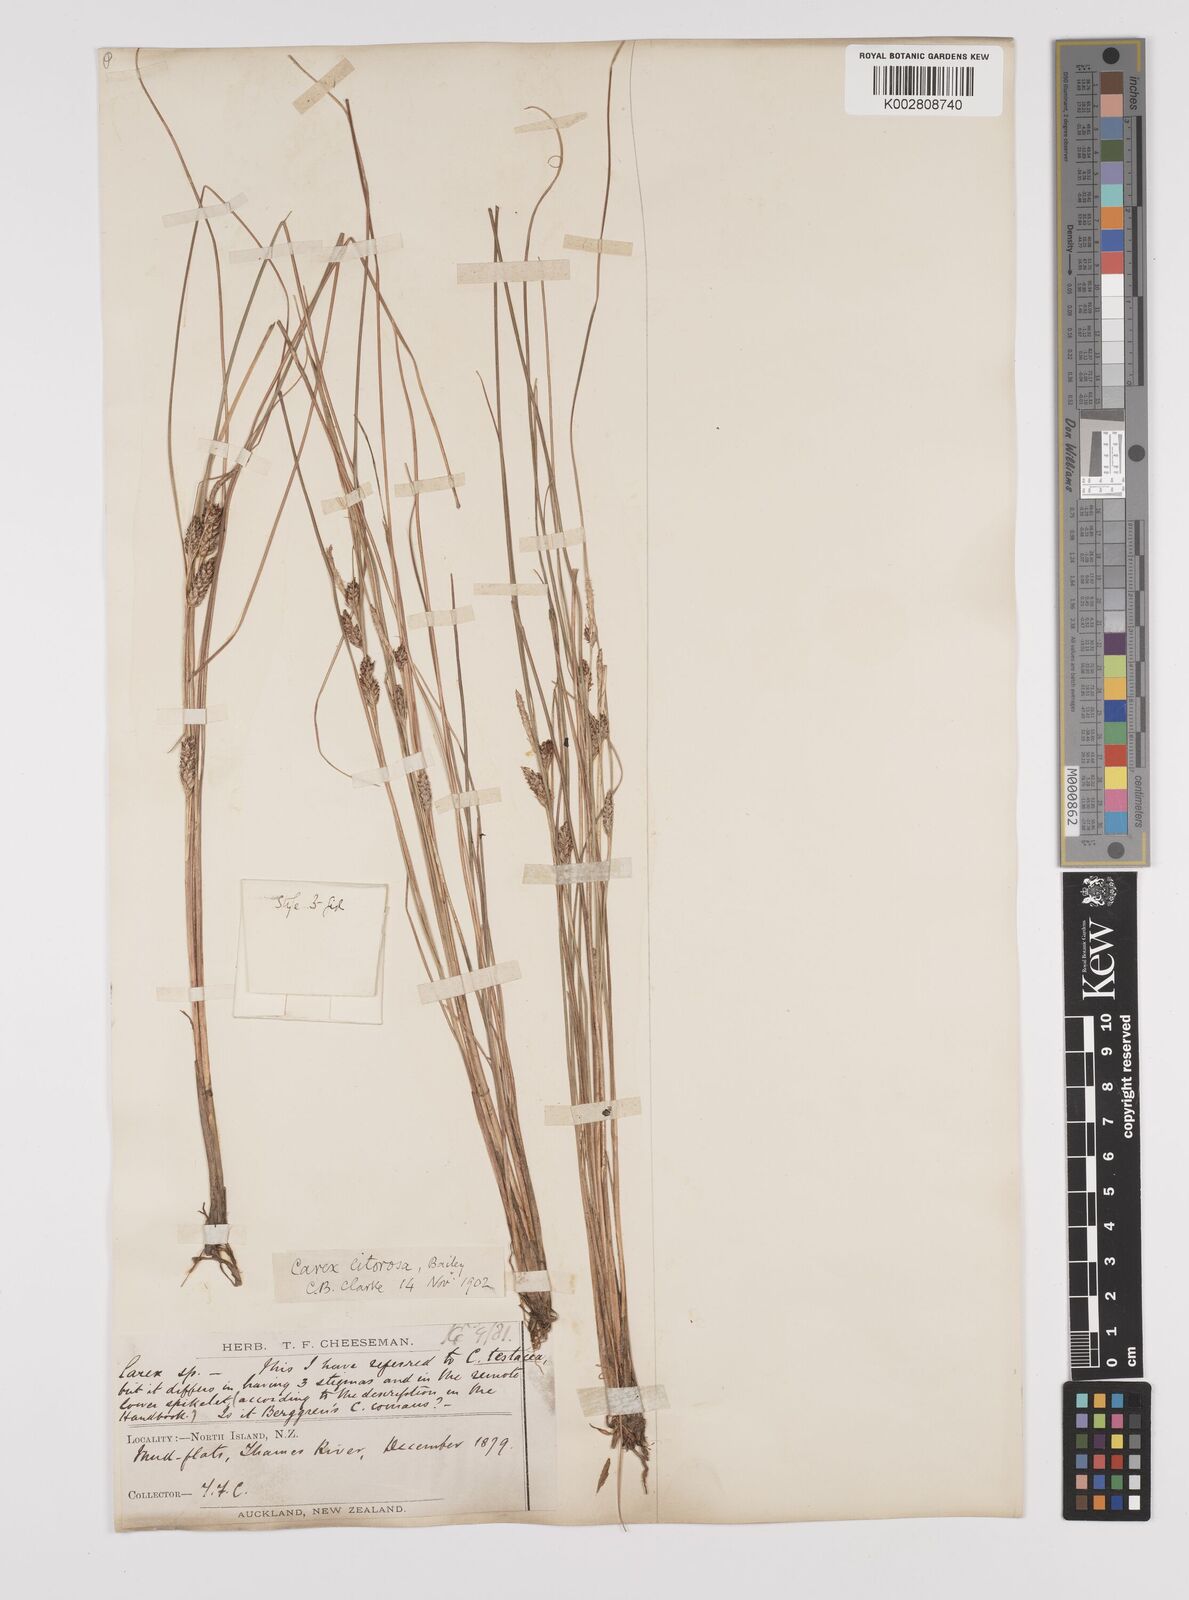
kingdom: Plantae
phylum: Tracheophyta
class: Liliopsida
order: Poales
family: Cyperaceae
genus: Carex
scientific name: Carex litorosa
